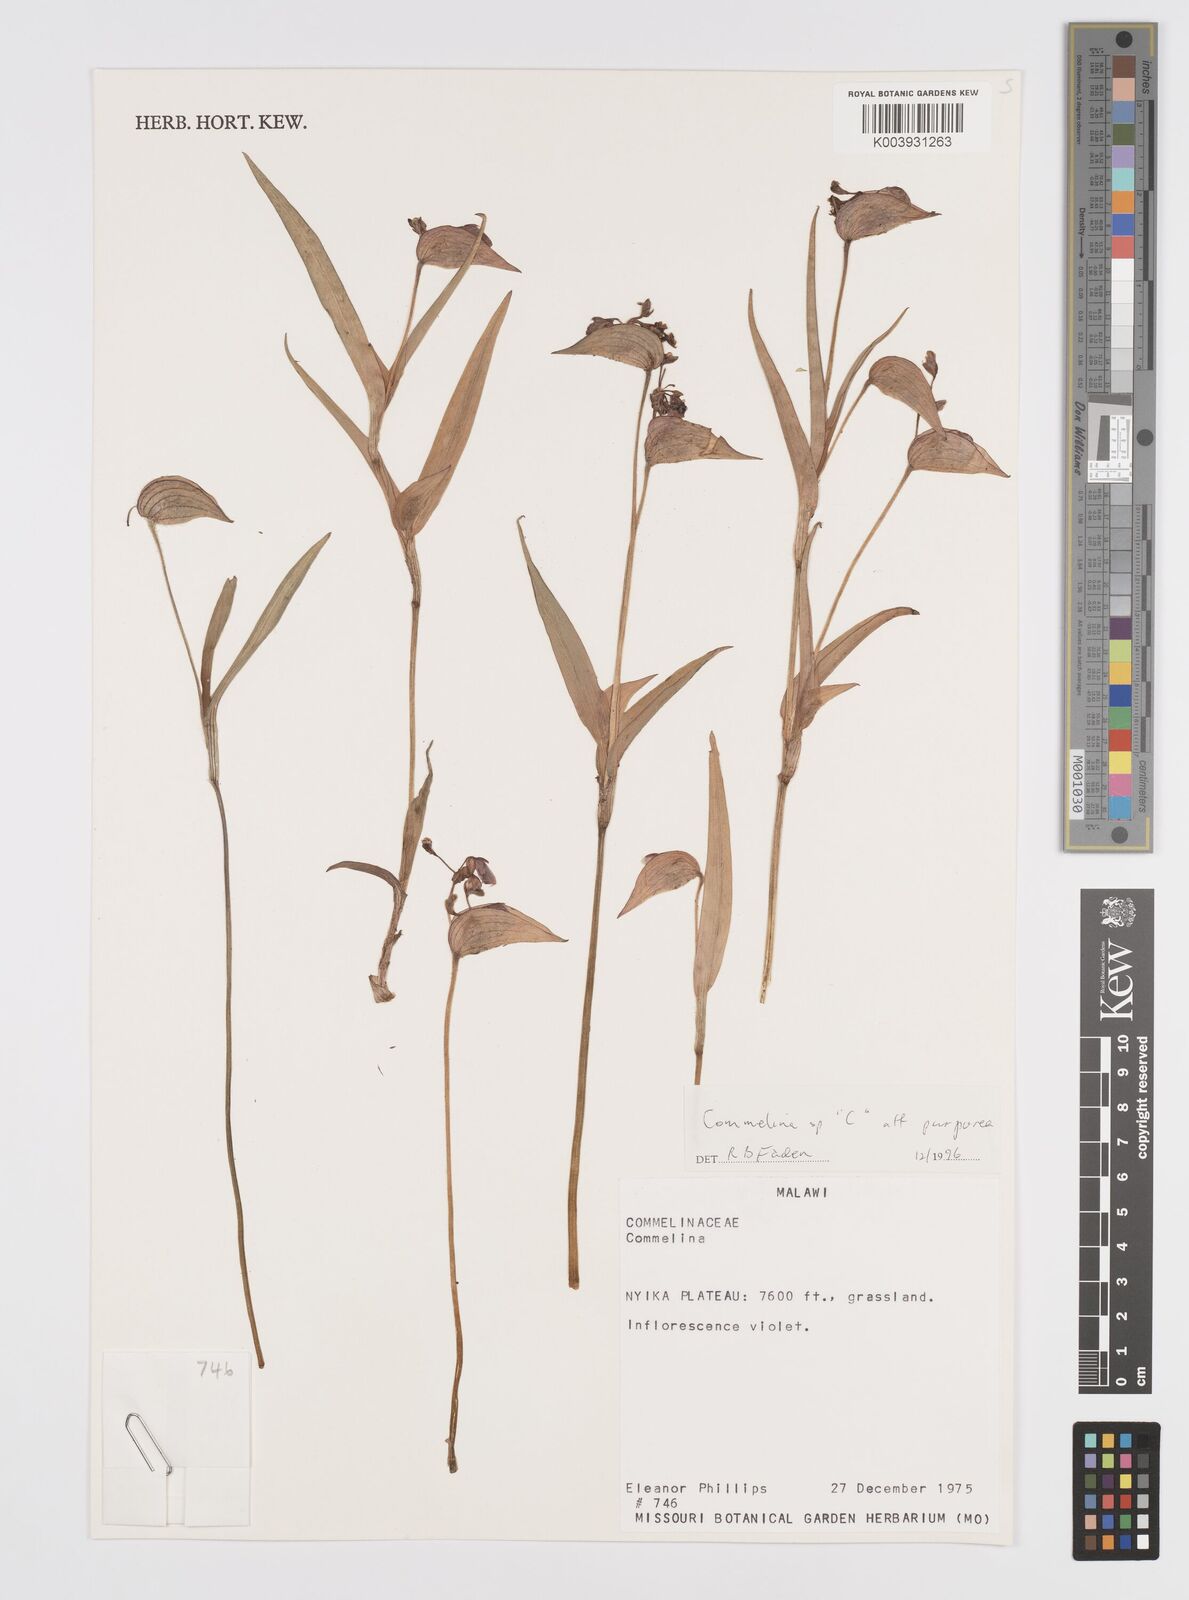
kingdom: Plantae
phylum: Tracheophyta
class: Liliopsida
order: Commelinales
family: Commelinaceae
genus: Commelina
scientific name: Commelina kituloensis
